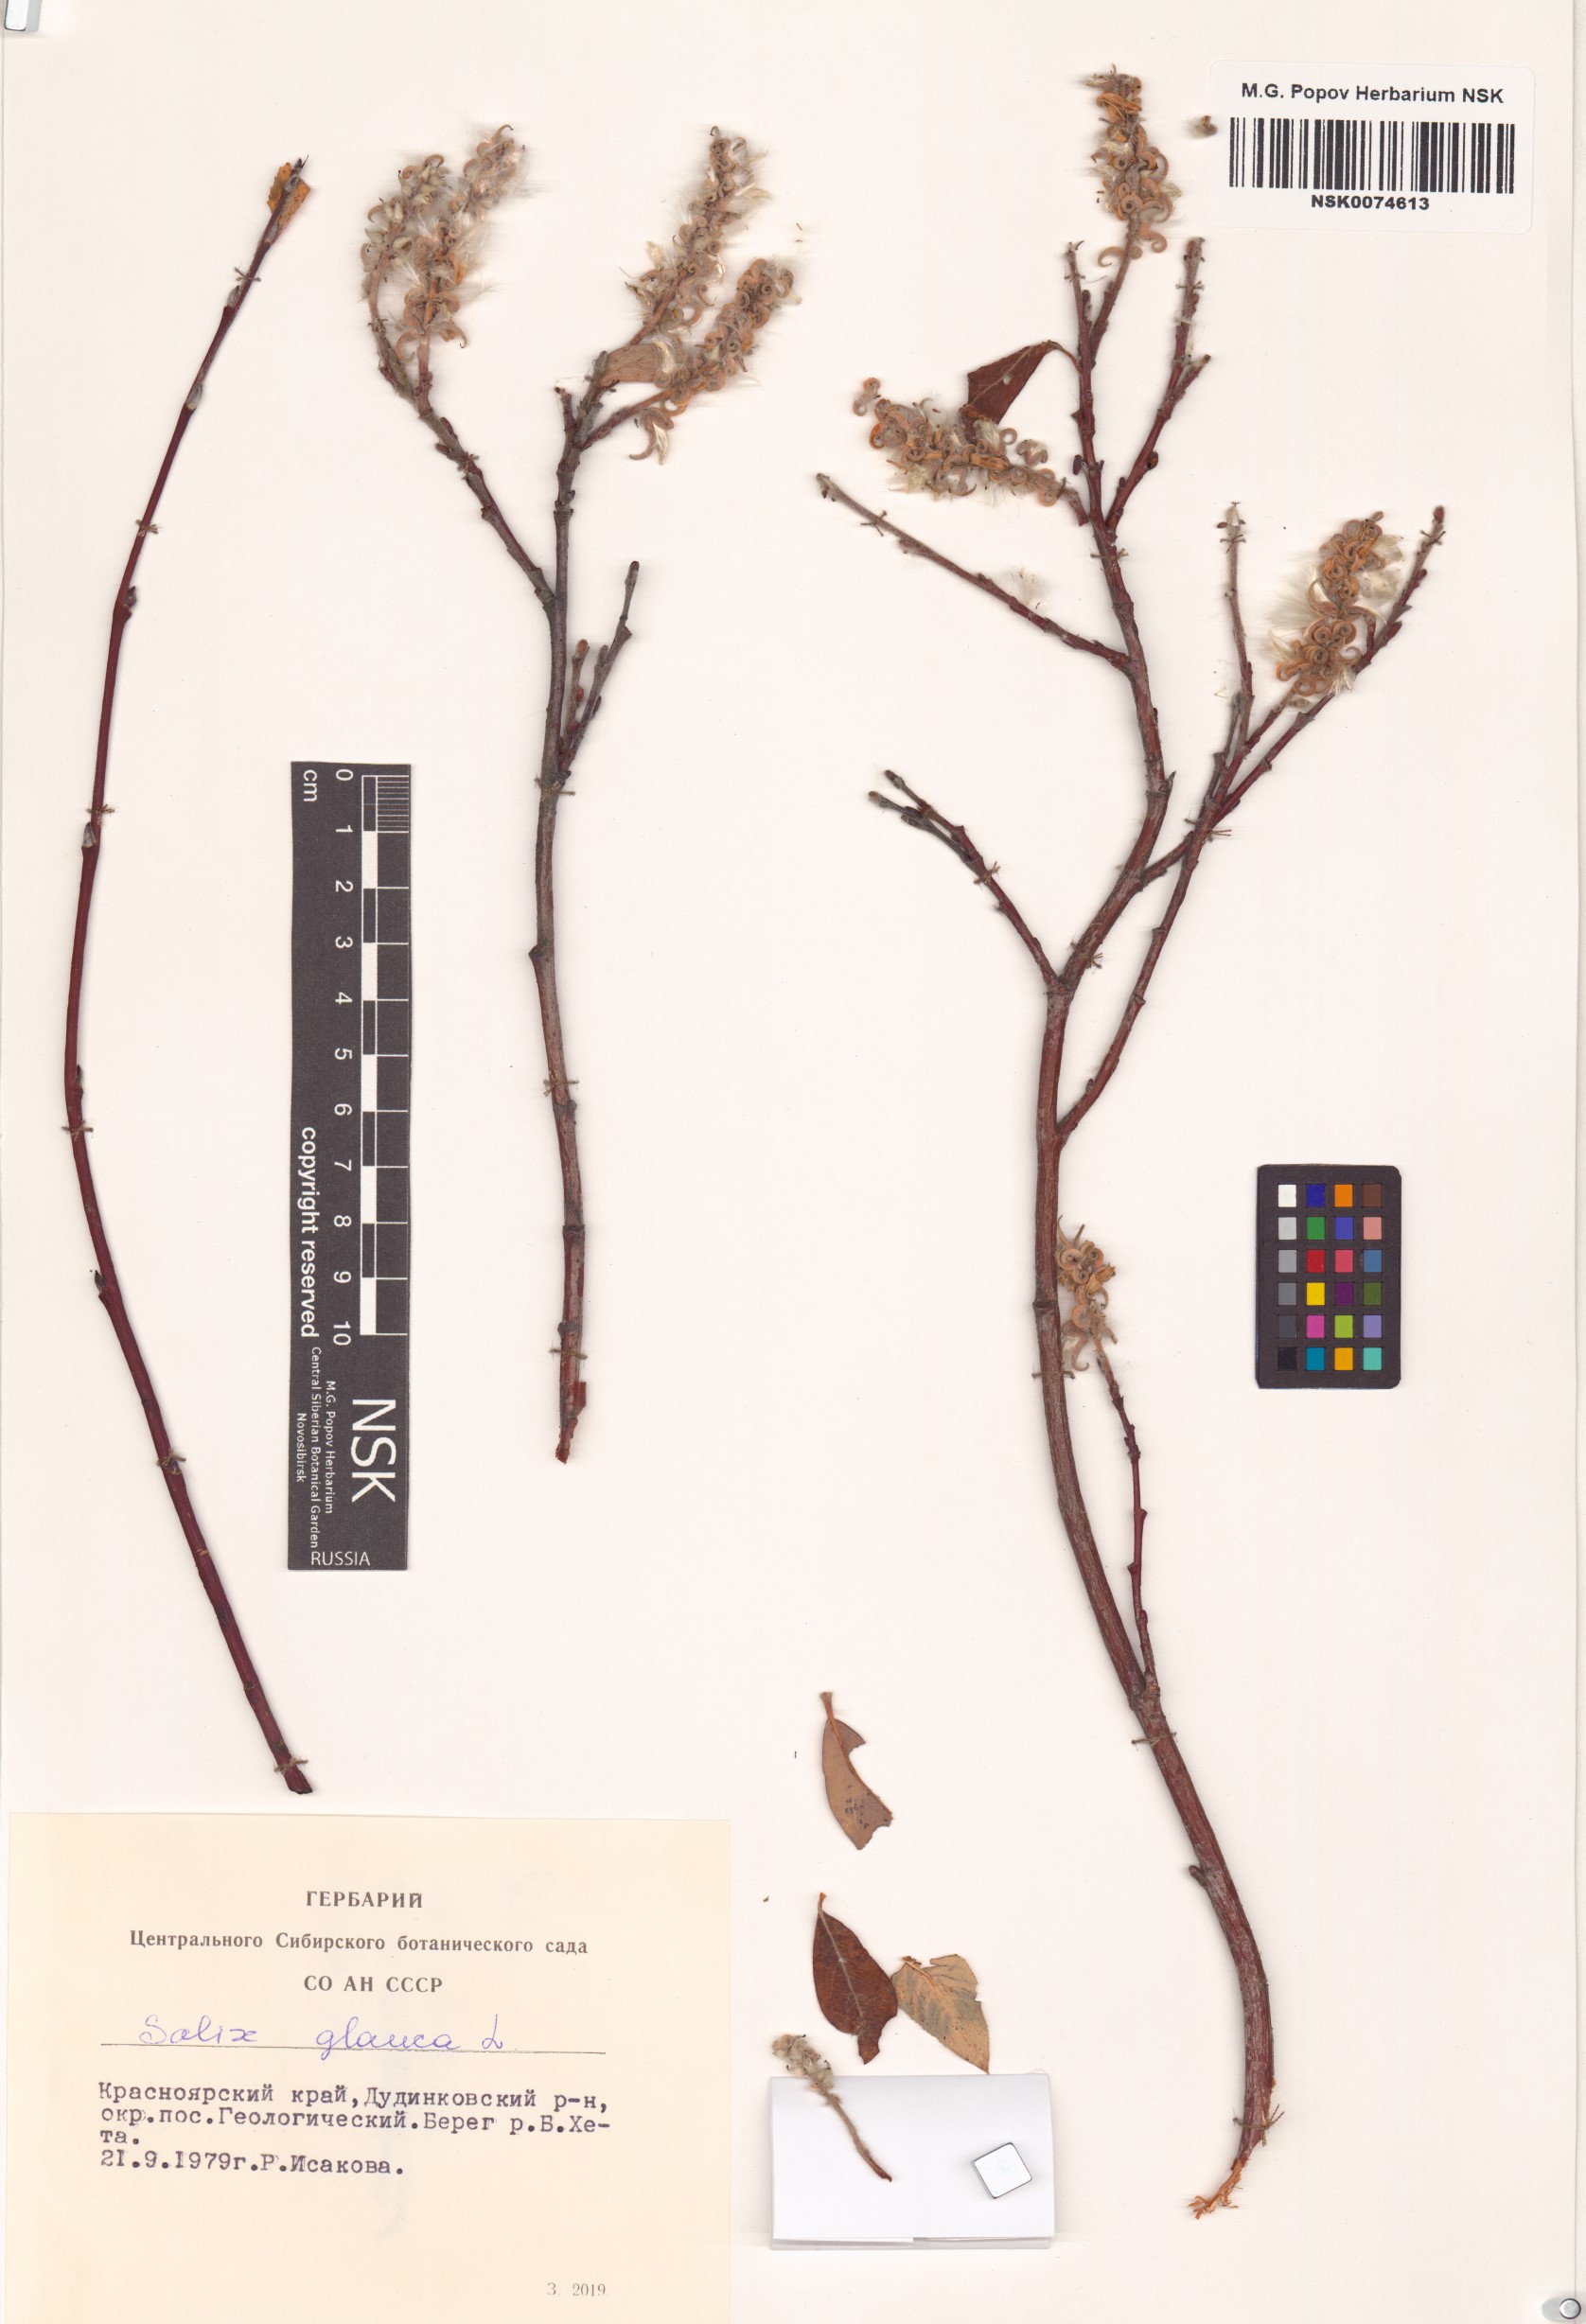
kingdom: Plantae
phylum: Tracheophyta
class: Magnoliopsida
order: Malpighiales
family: Salicaceae
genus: Salix
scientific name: Salix glauca
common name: Glaucous willow
